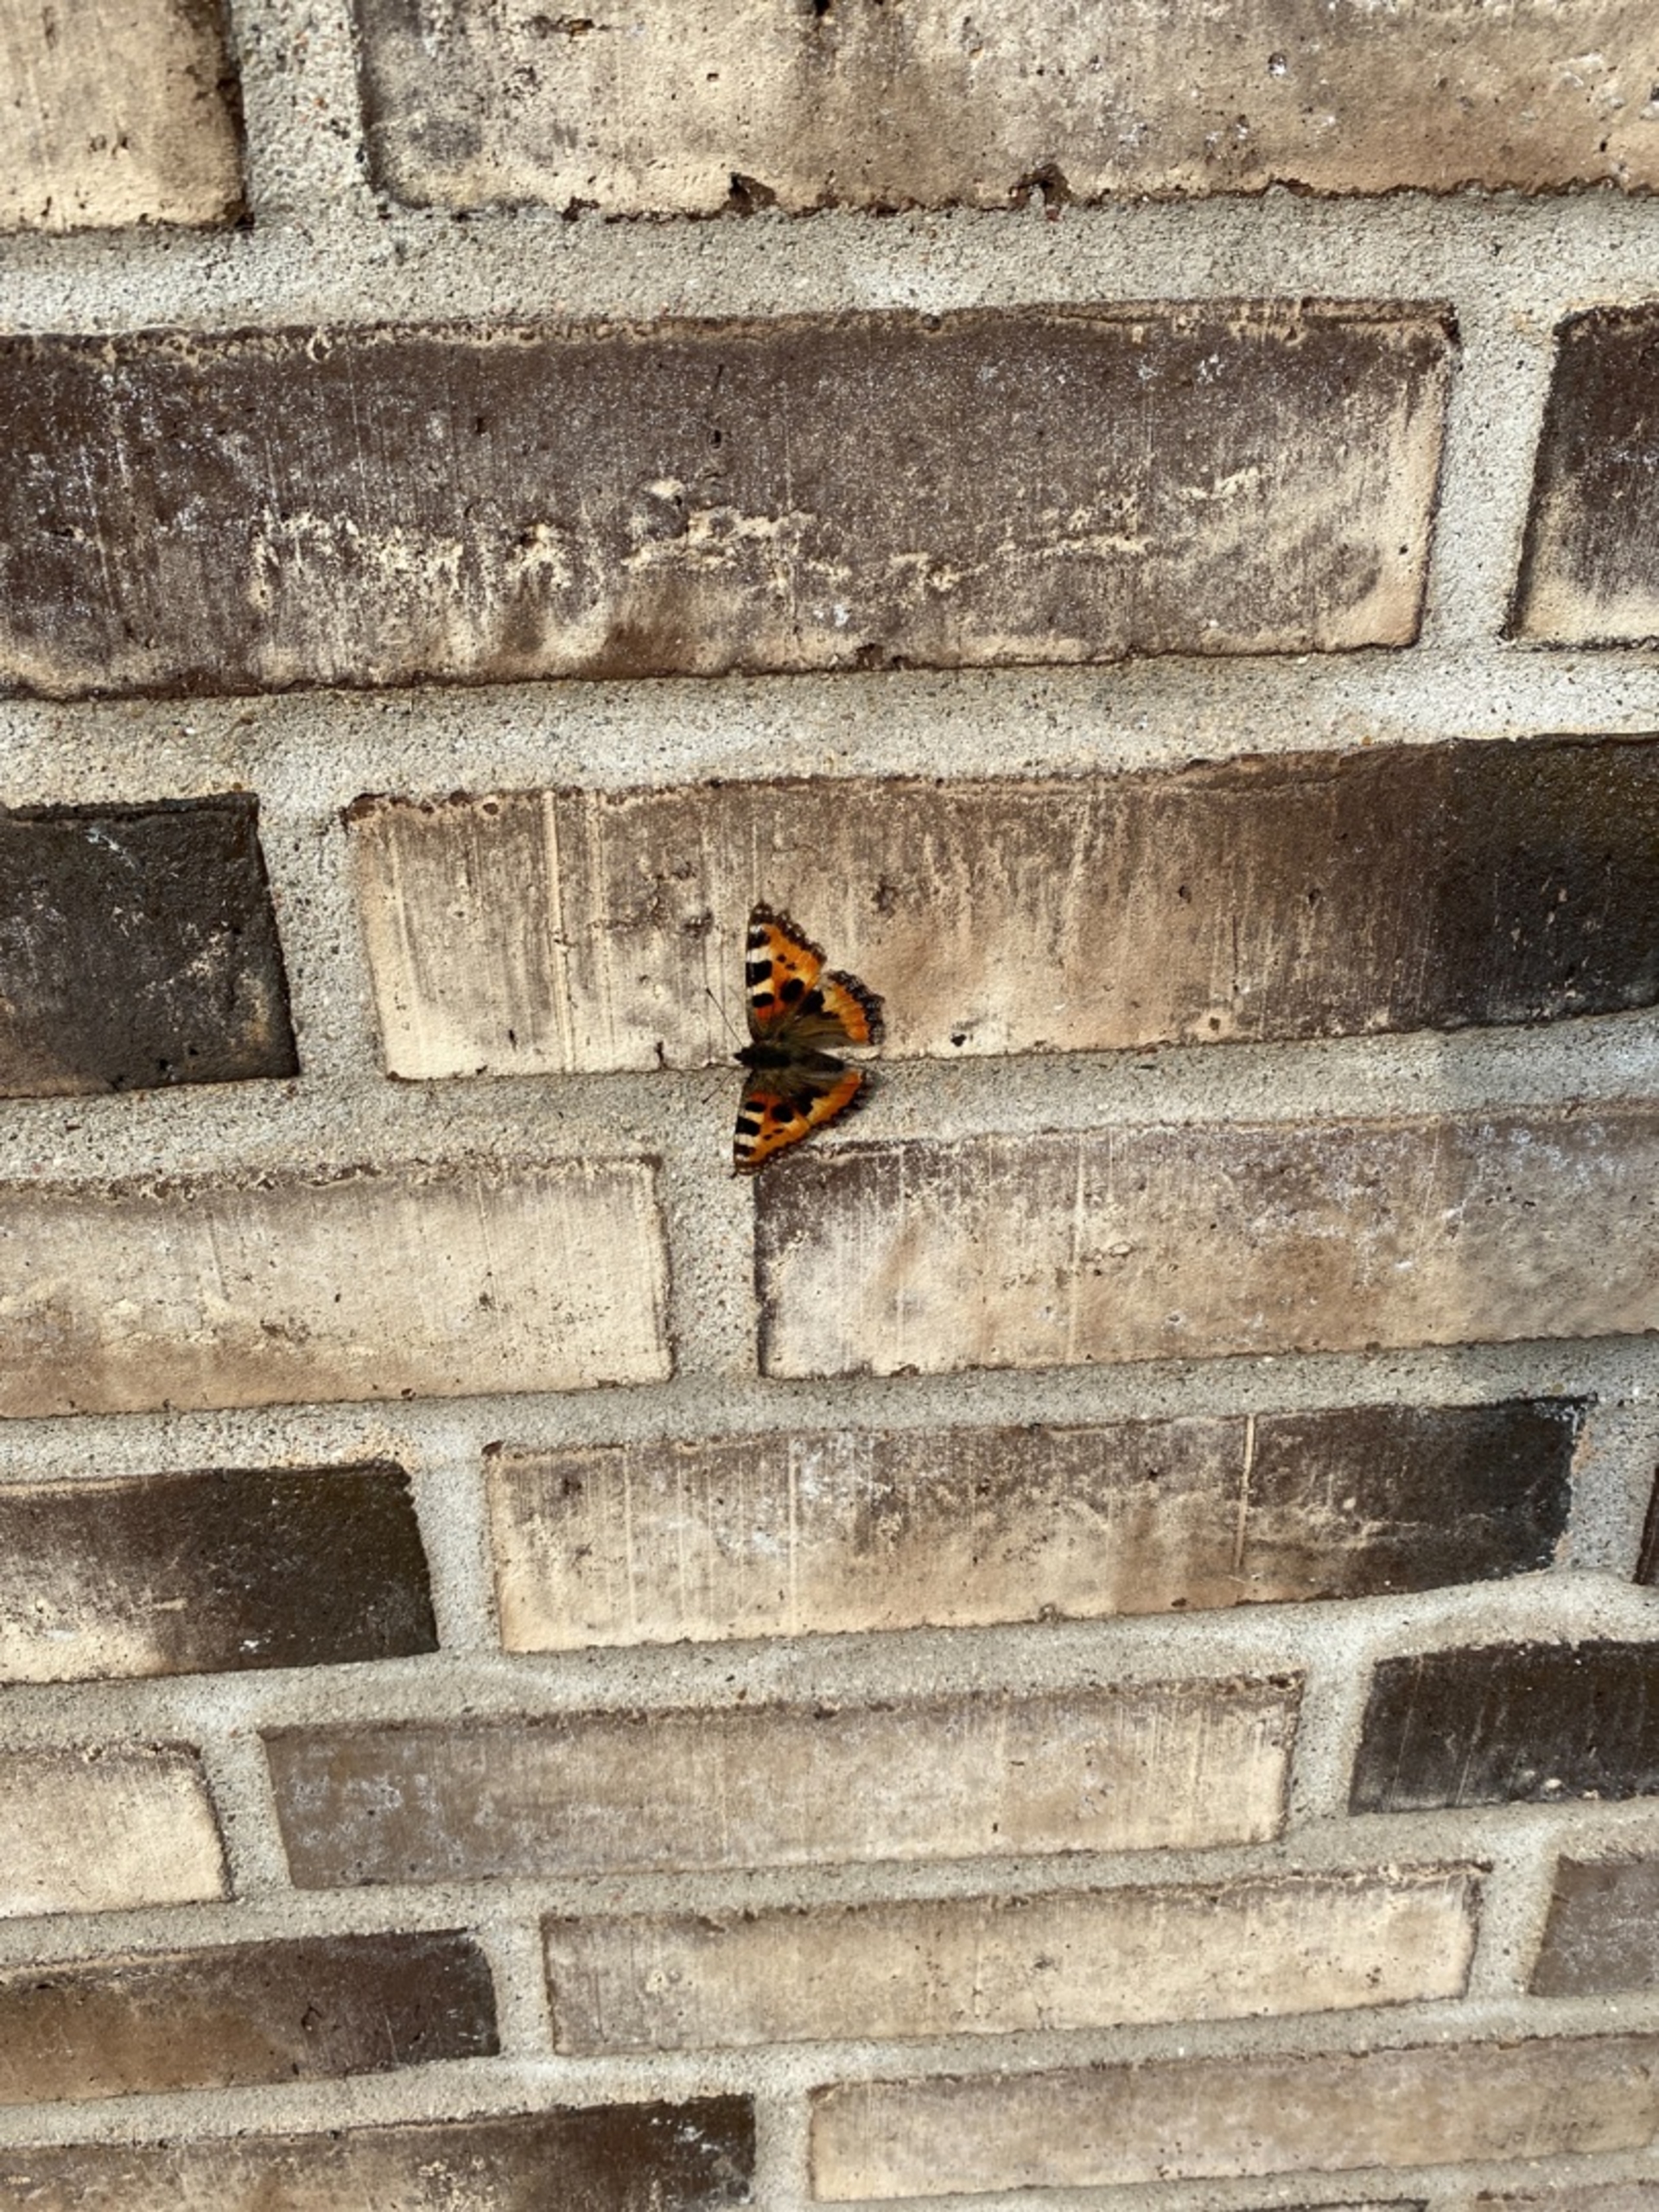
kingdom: Animalia
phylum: Arthropoda
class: Insecta
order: Lepidoptera
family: Nymphalidae
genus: Aglais
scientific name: Aglais urticae
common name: Nældens takvinge
